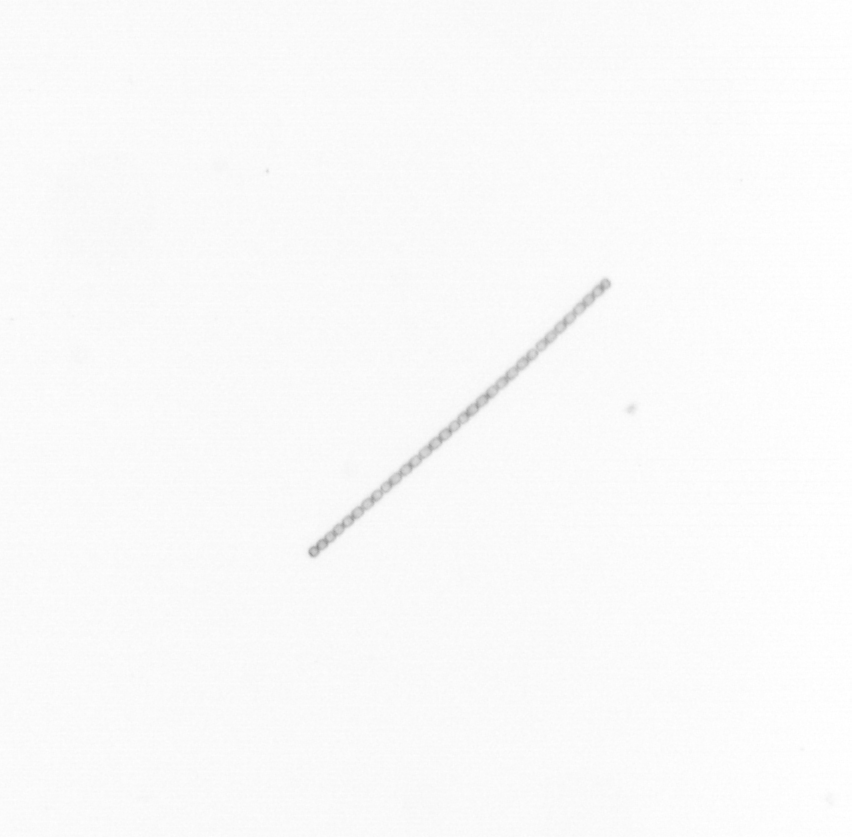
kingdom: Chromista
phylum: Ochrophyta
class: Bacillariophyceae
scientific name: Bacillariophyceae
